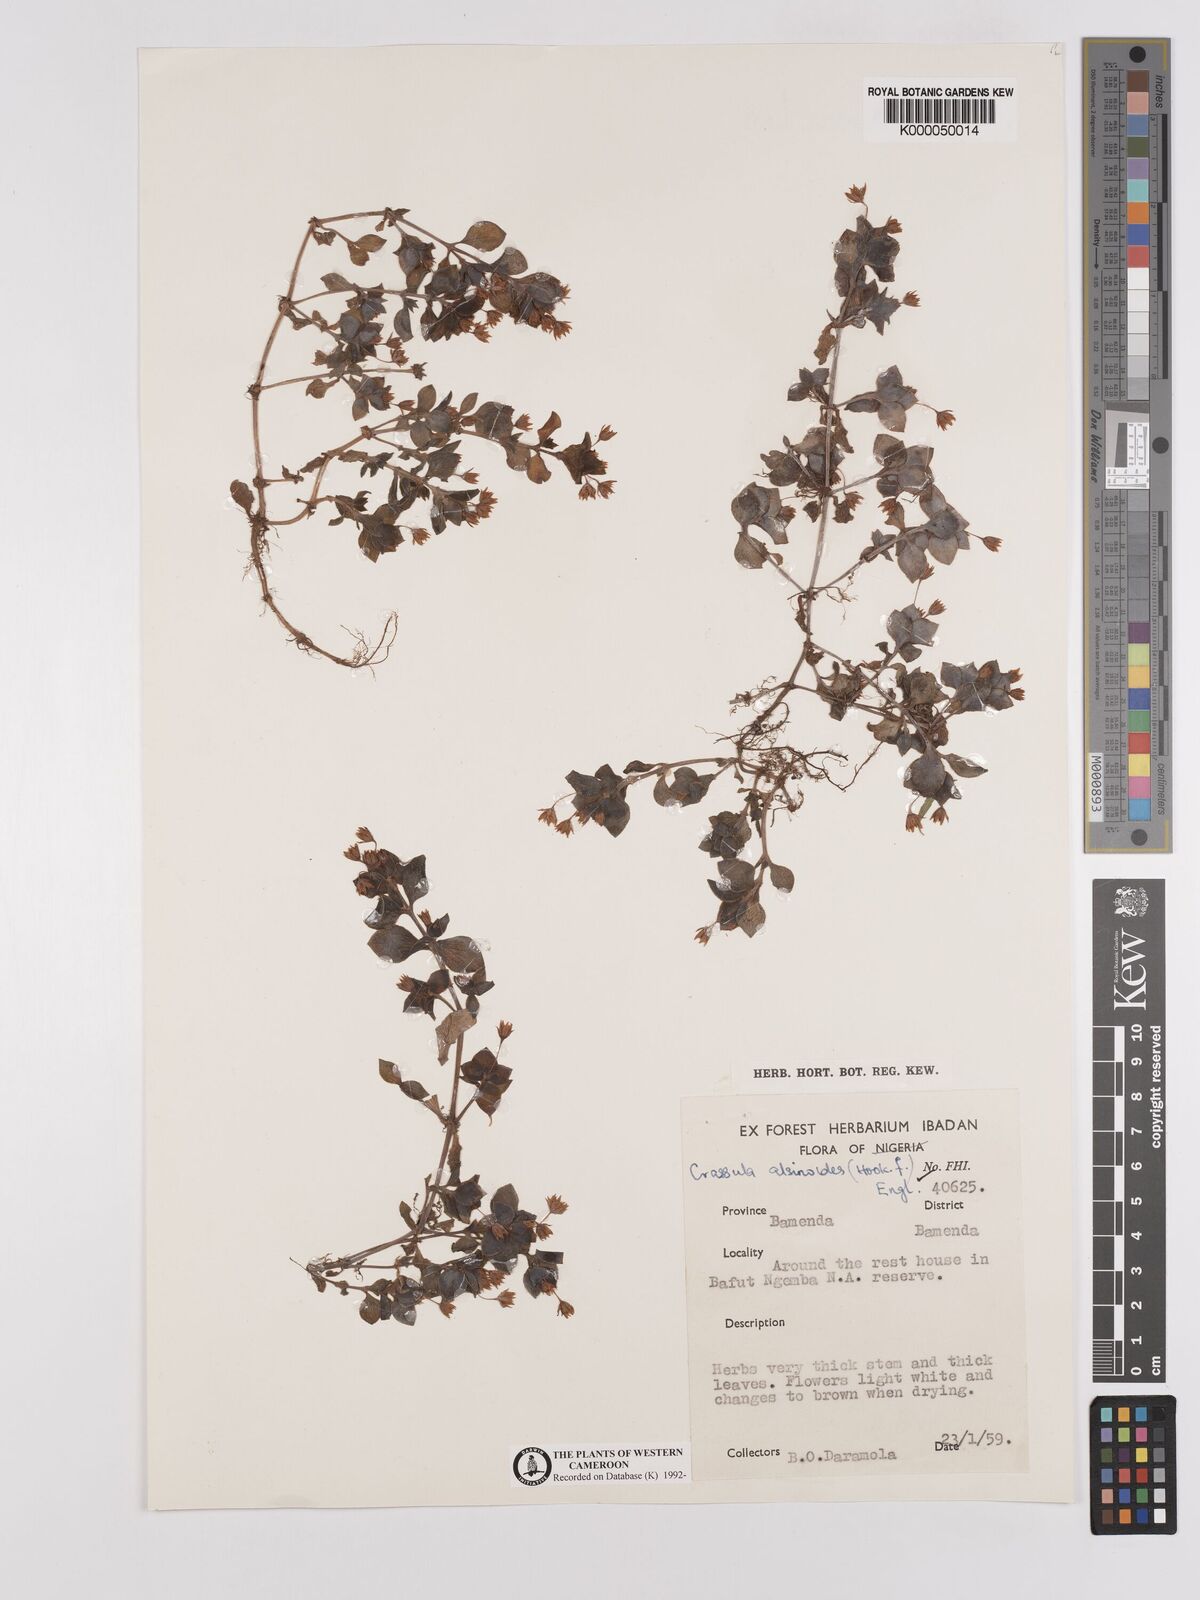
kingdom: Plantae
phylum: Tracheophyta
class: Magnoliopsida
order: Saxifragales
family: Crassulaceae
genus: Crassula
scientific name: Crassula alsinoides
